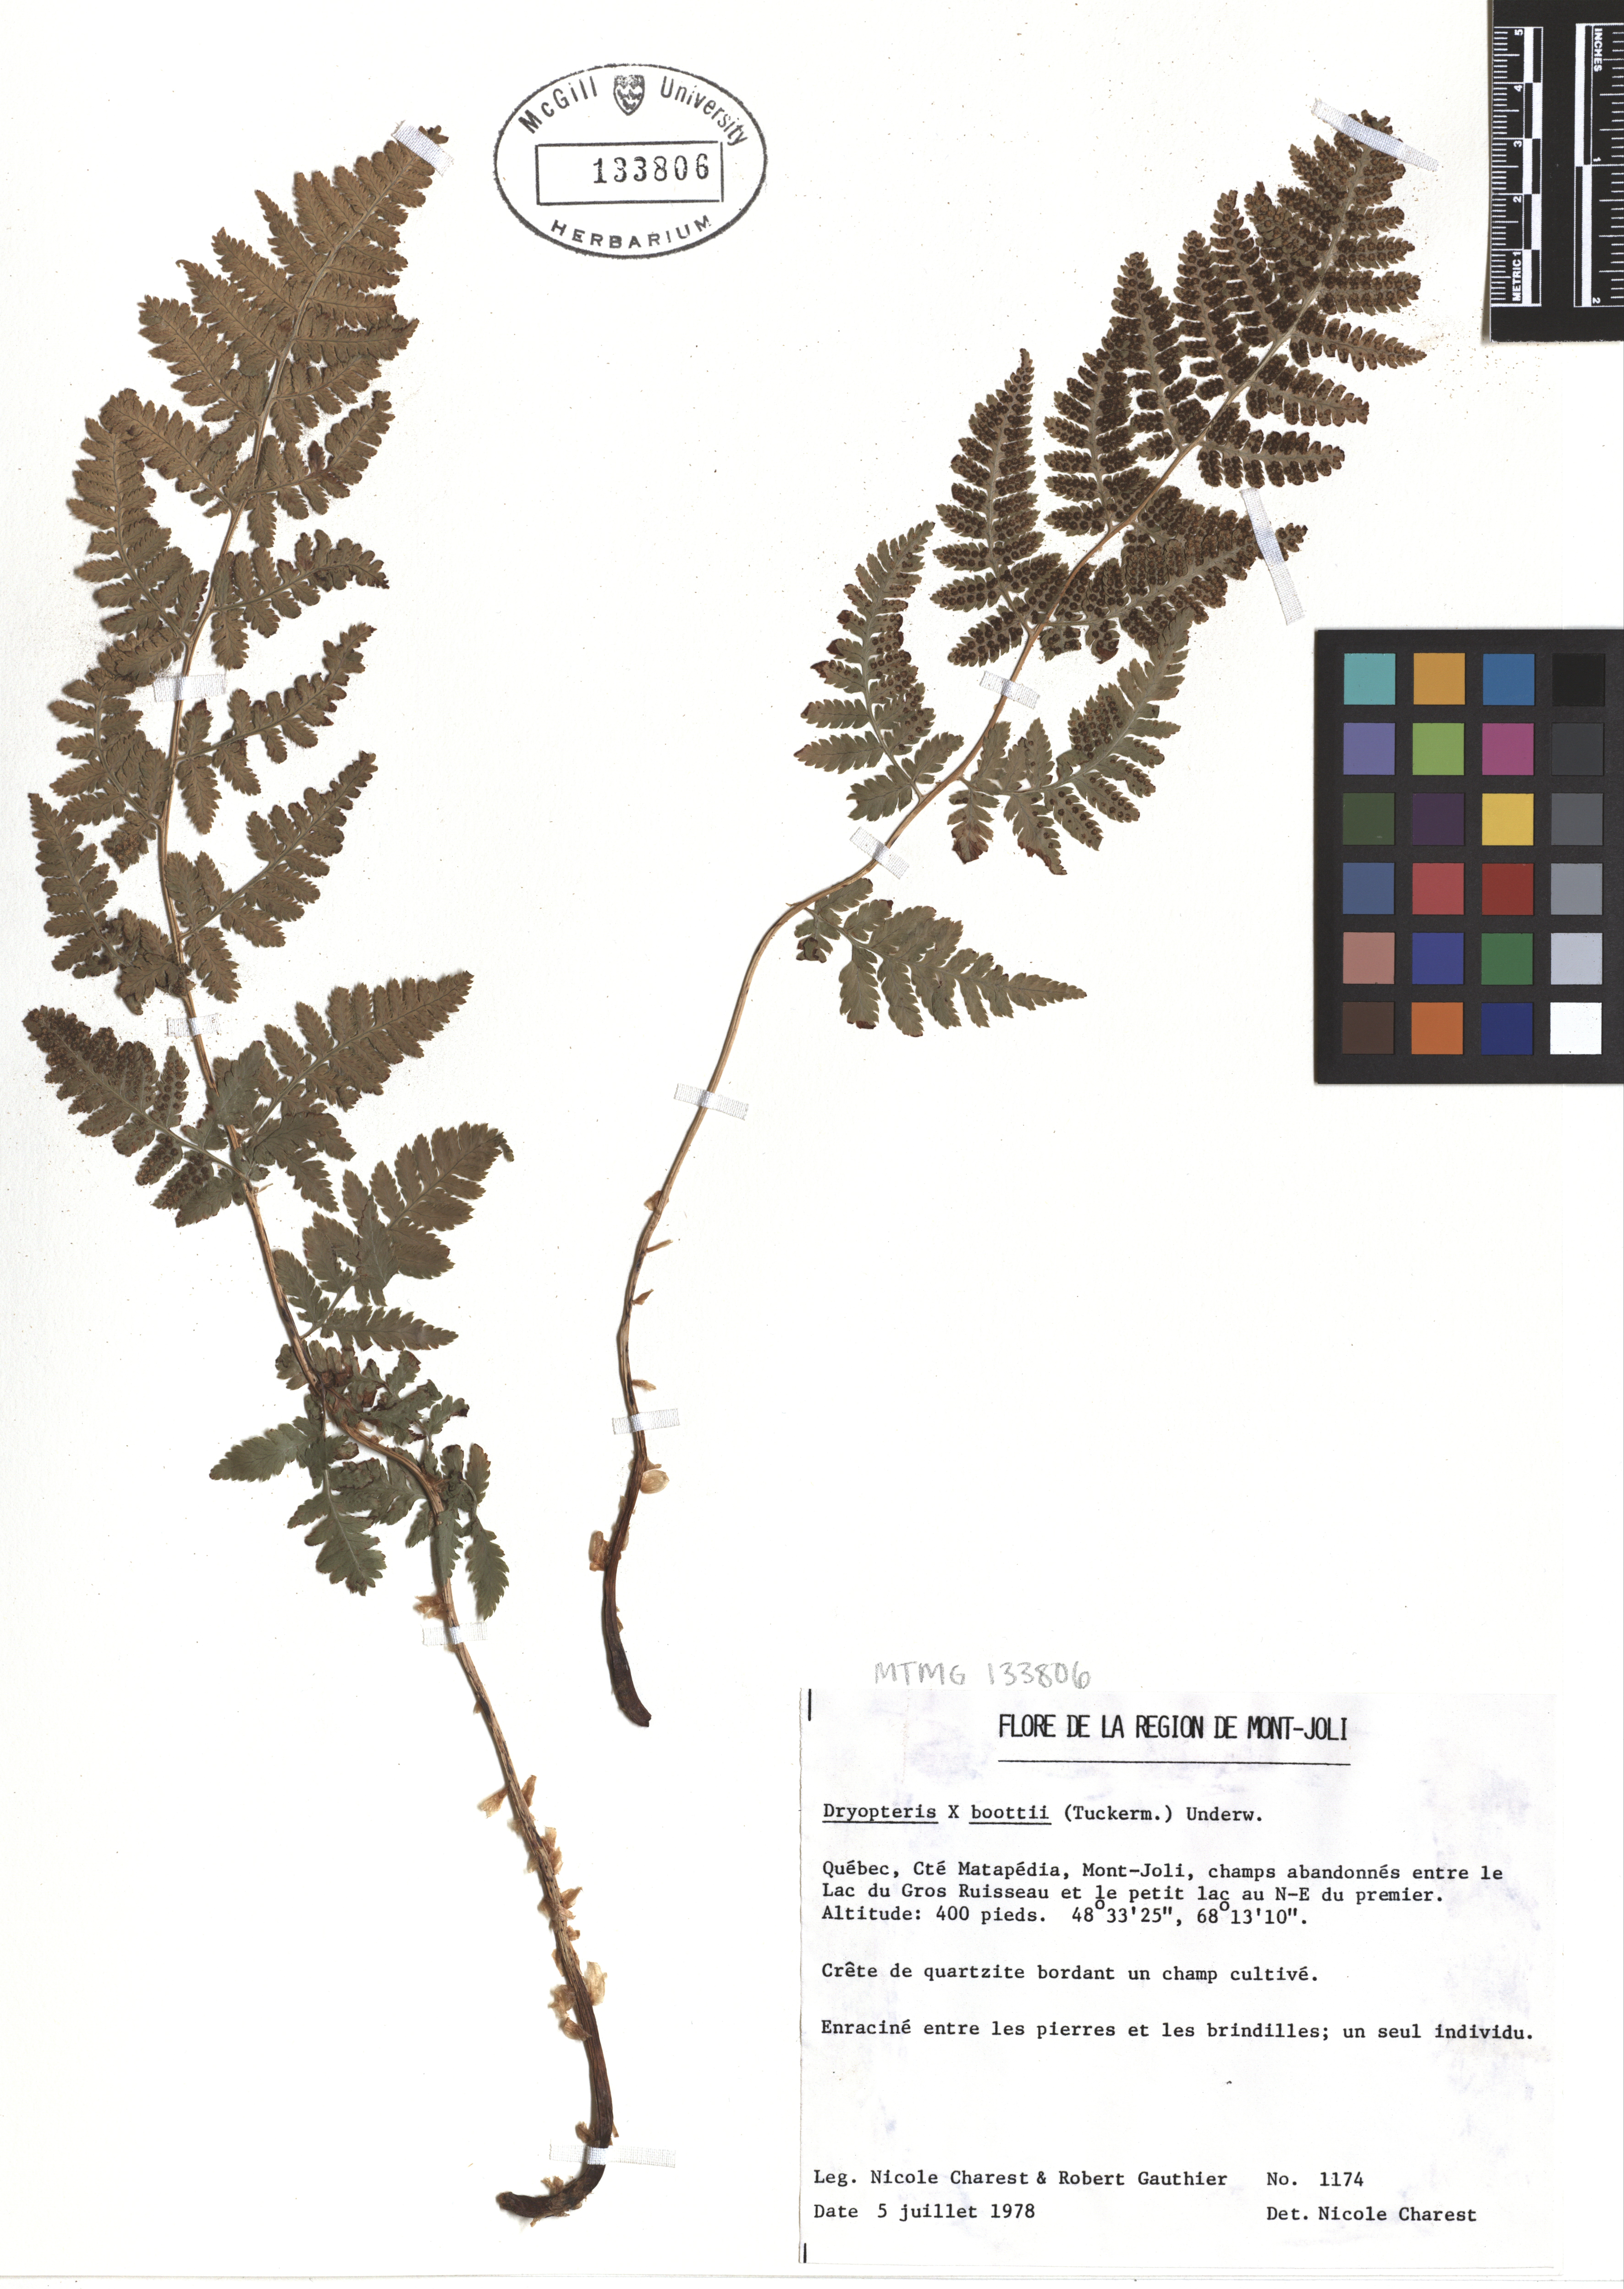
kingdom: Plantae
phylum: Tracheophyta
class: Polypodiopsida
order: Polypodiales
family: Dryopteridaceae
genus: Dryopteris
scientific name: Dryopteris boottii
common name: Boott's fern
